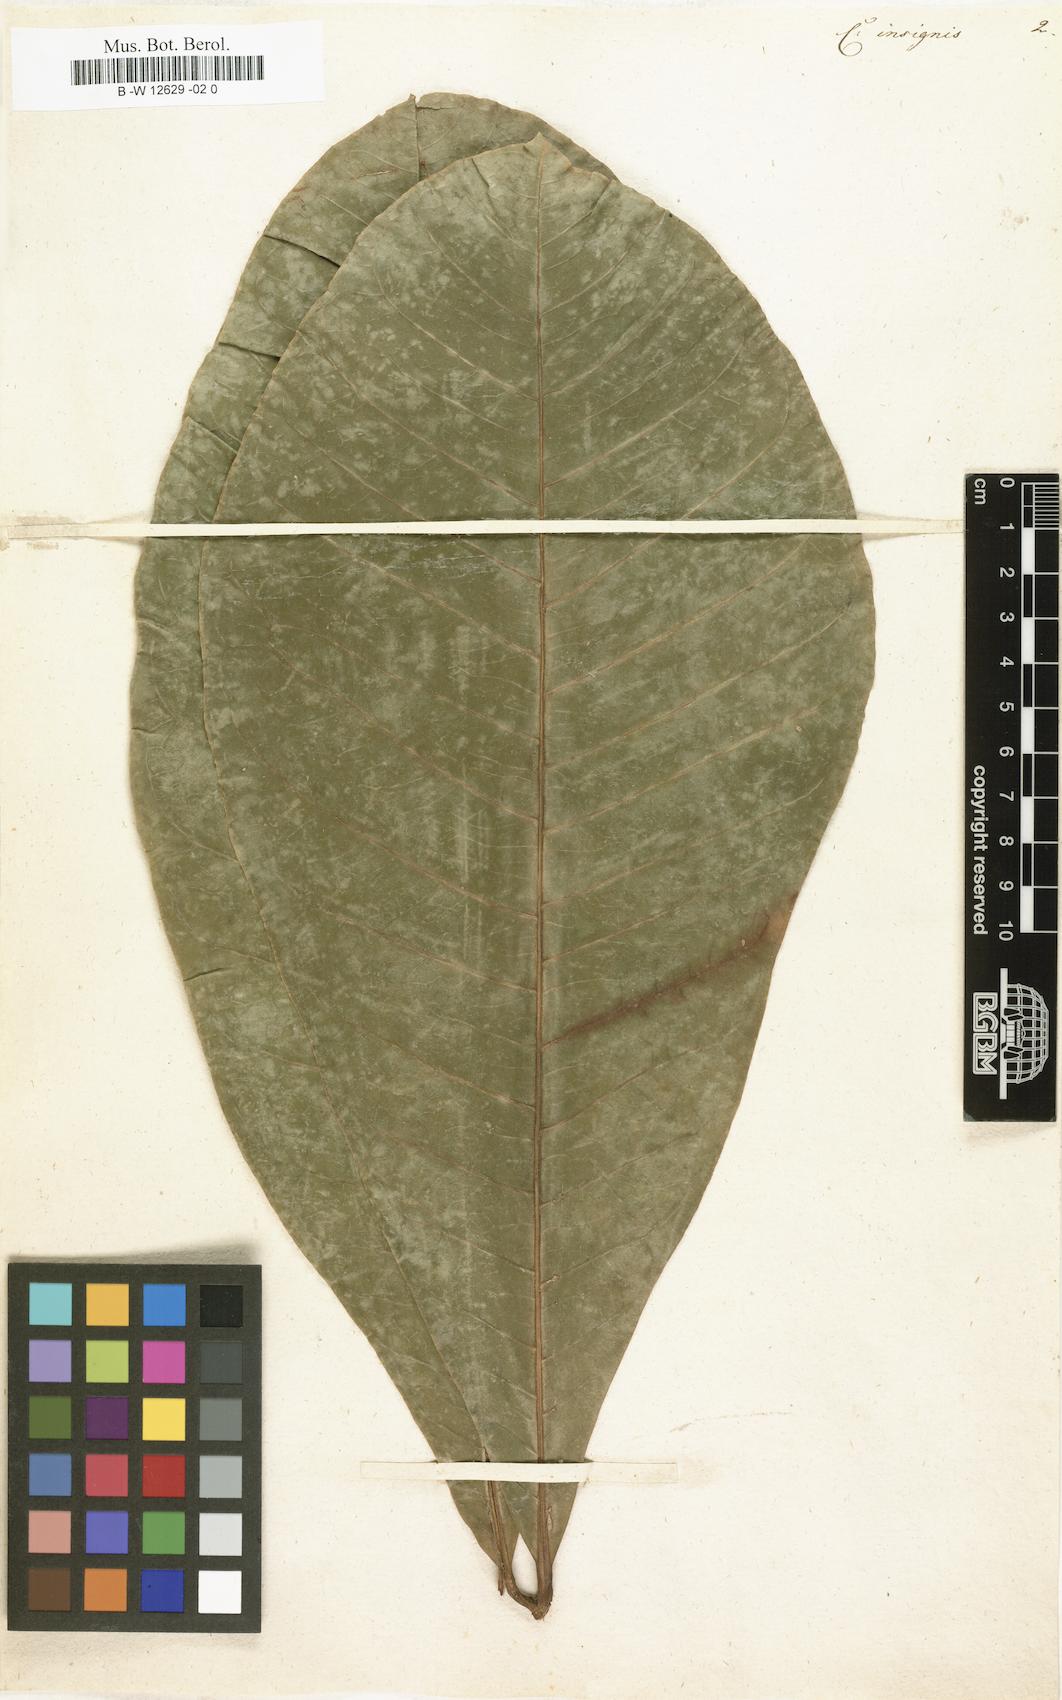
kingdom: Plantae
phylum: Tracheophyta
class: Magnoliopsida
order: Malvales
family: Malvaceae
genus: Pachira
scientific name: Pachira insignis
